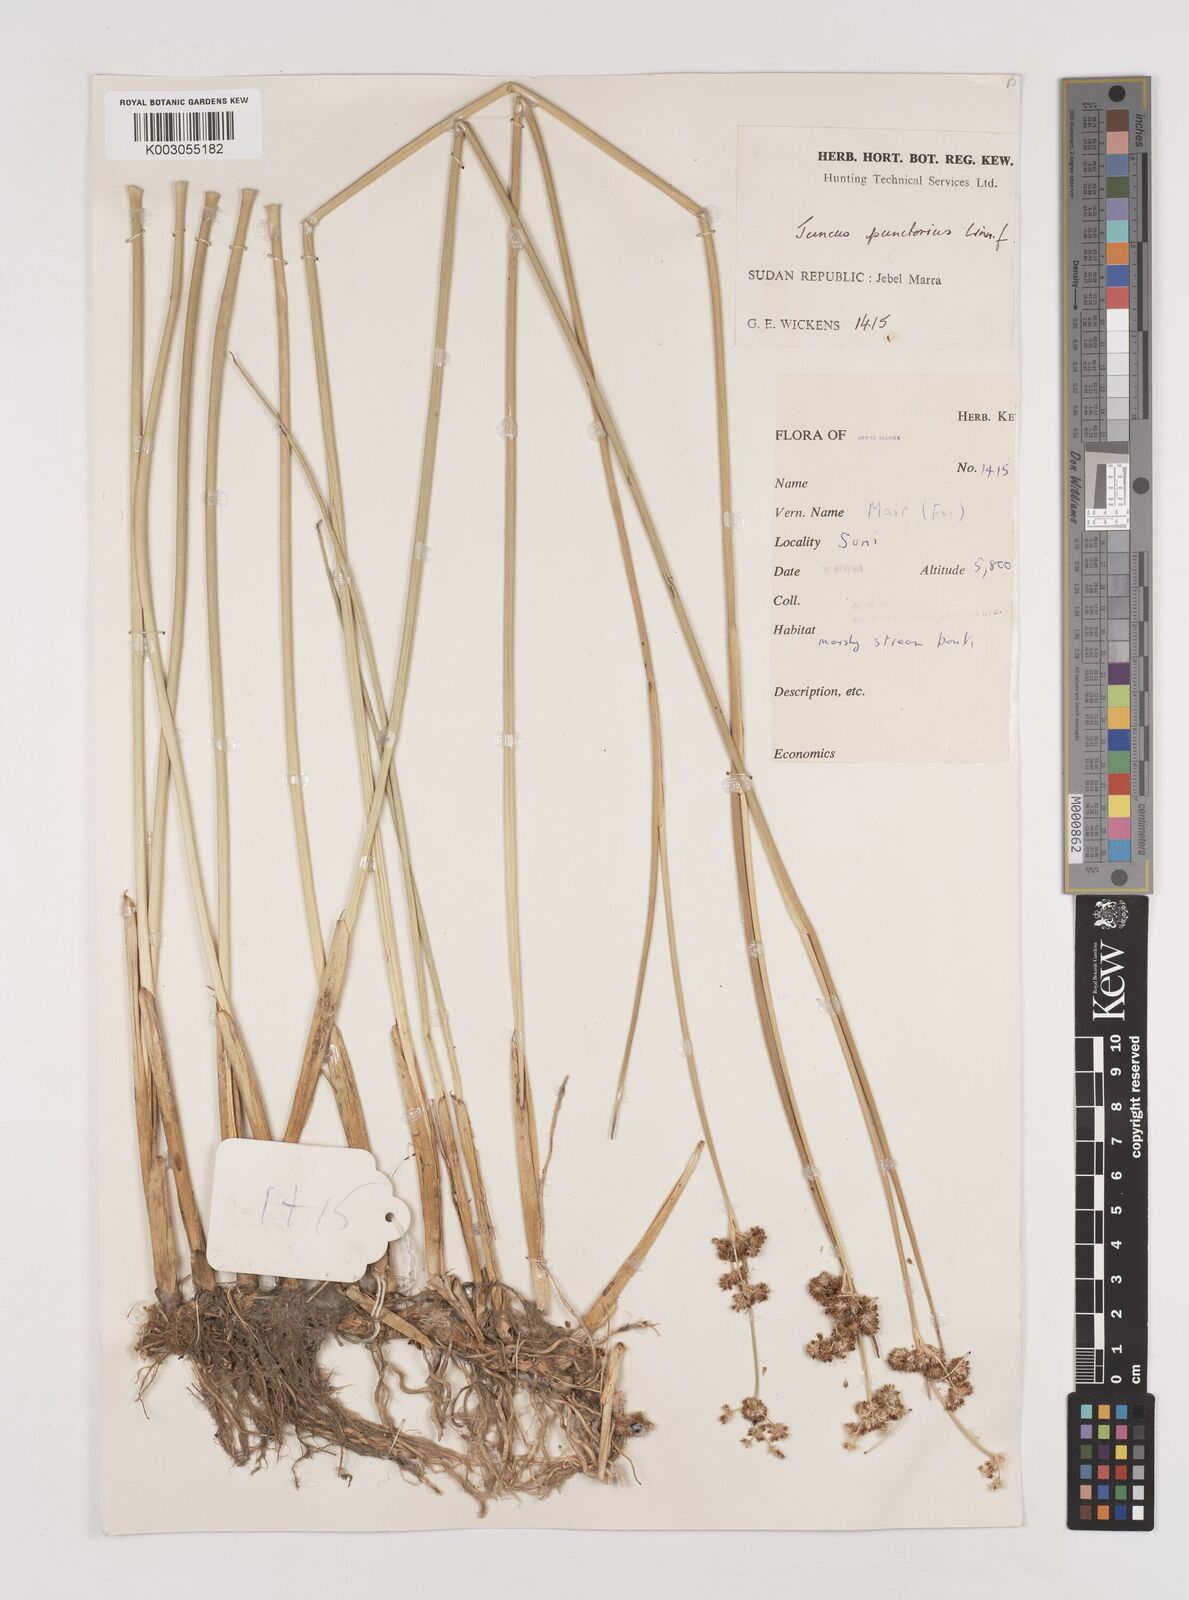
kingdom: Plantae
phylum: Tracheophyta
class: Liliopsida
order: Poales
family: Juncaceae
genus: Juncus
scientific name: Juncus punctorius
